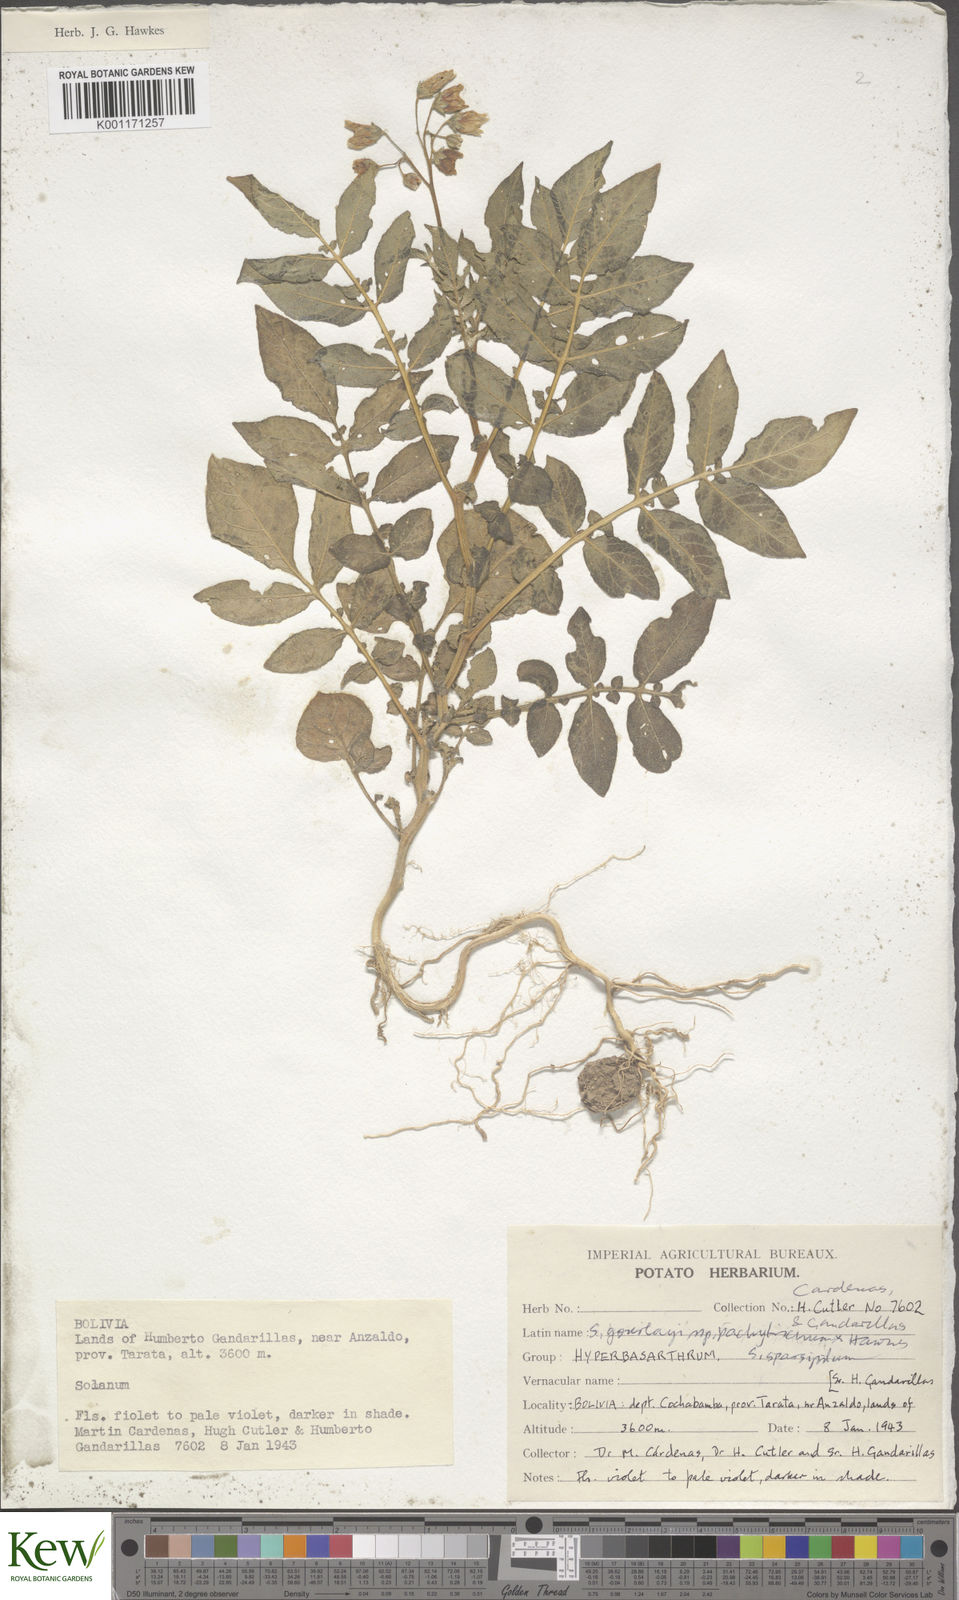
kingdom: Plantae
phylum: Tracheophyta
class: Magnoliopsida
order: Solanales
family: Solanaceae
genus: Solanum
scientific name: Solanum brevicaule
